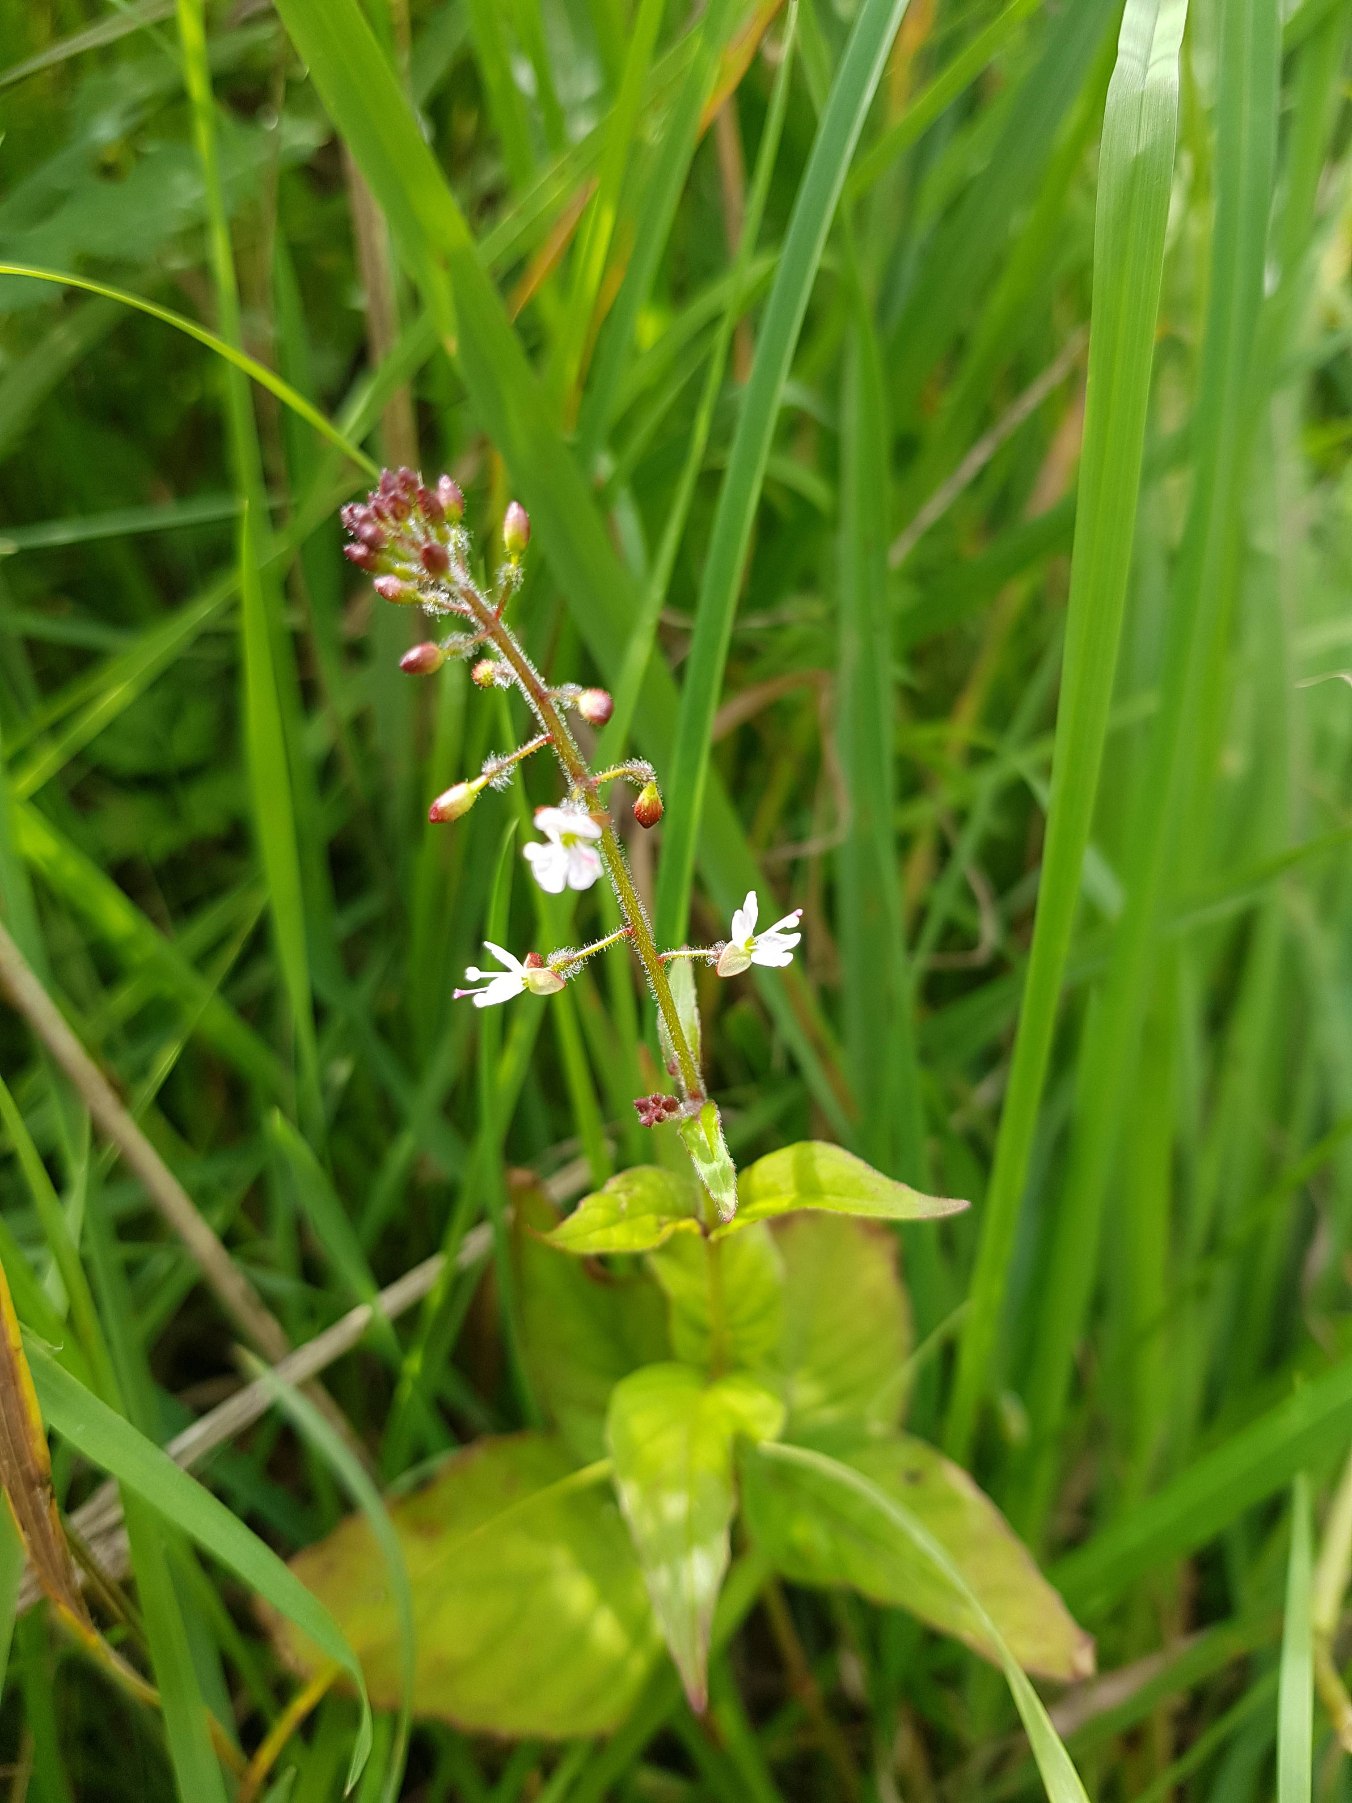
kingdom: Plantae
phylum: Tracheophyta
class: Magnoliopsida
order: Myrtales
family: Onagraceae
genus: Circaea
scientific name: Circaea lutetiana
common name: Dunet steffensurt
